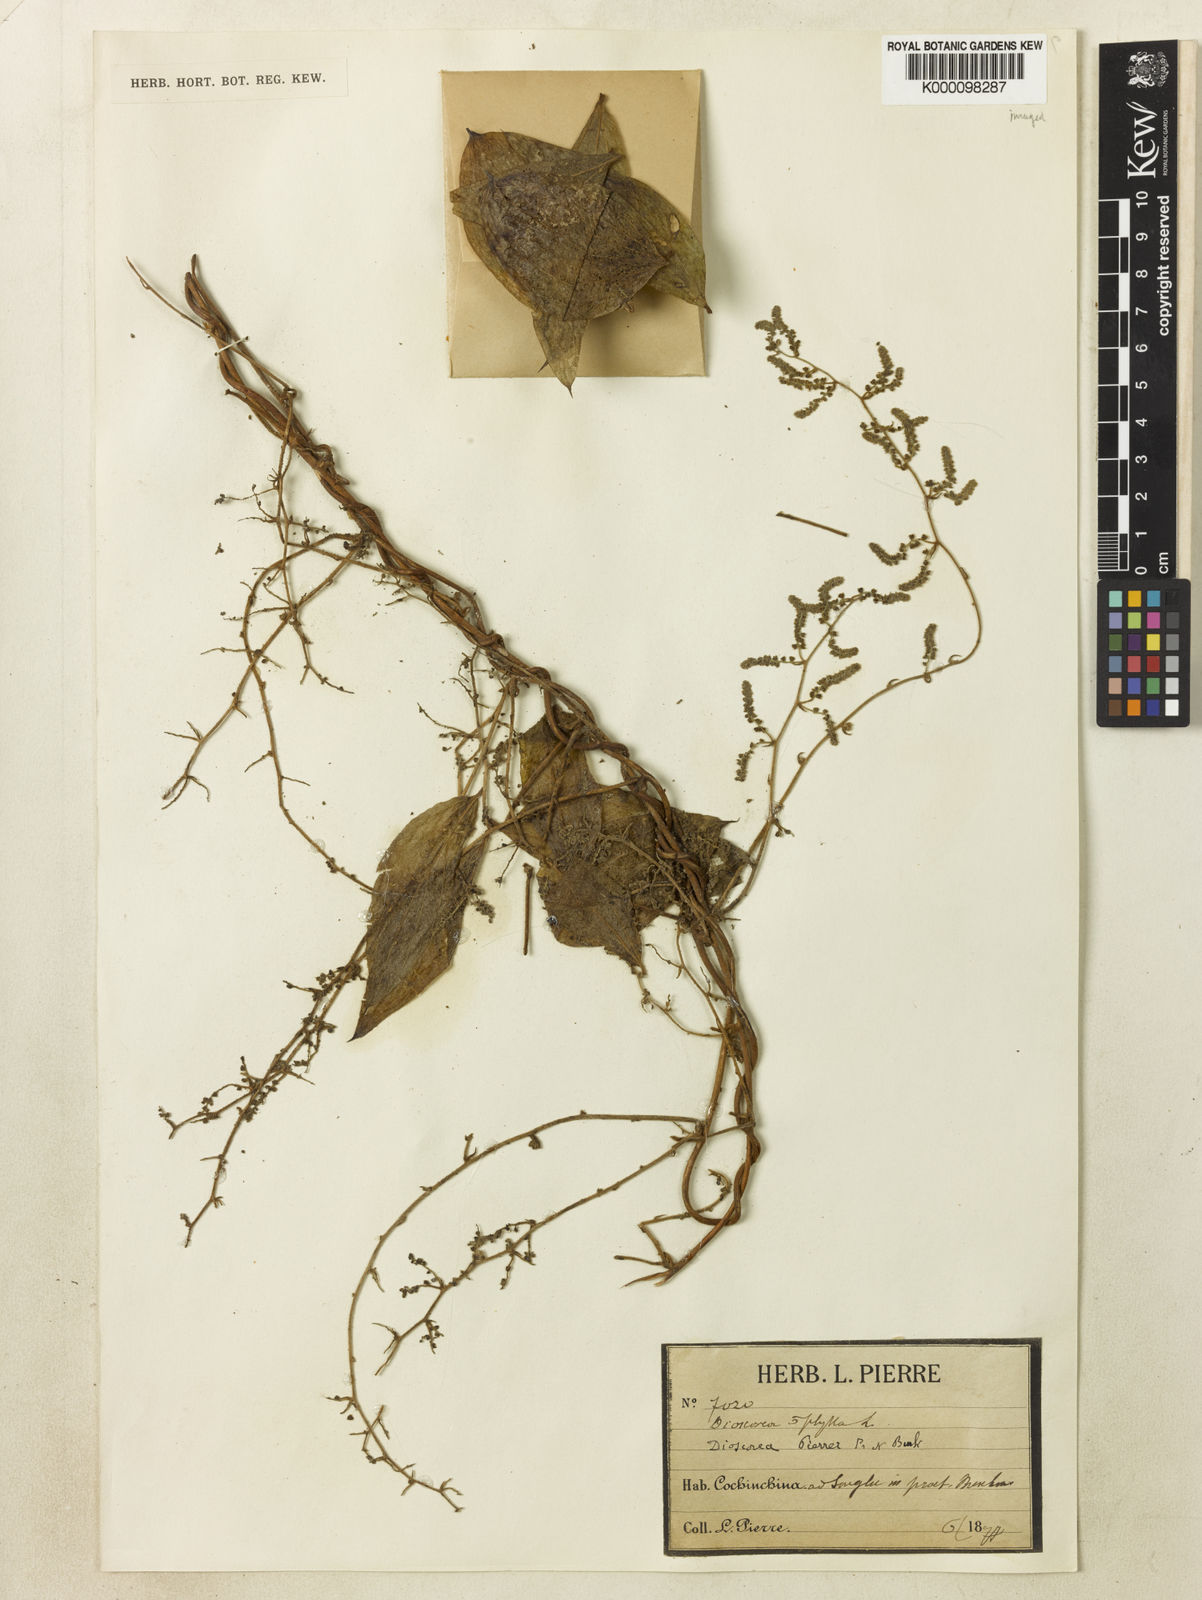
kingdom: Plantae
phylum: Tracheophyta
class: Liliopsida
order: Dioscoreales
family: Dioscoreaceae
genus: Dioscorea
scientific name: Dioscorea pierrei
